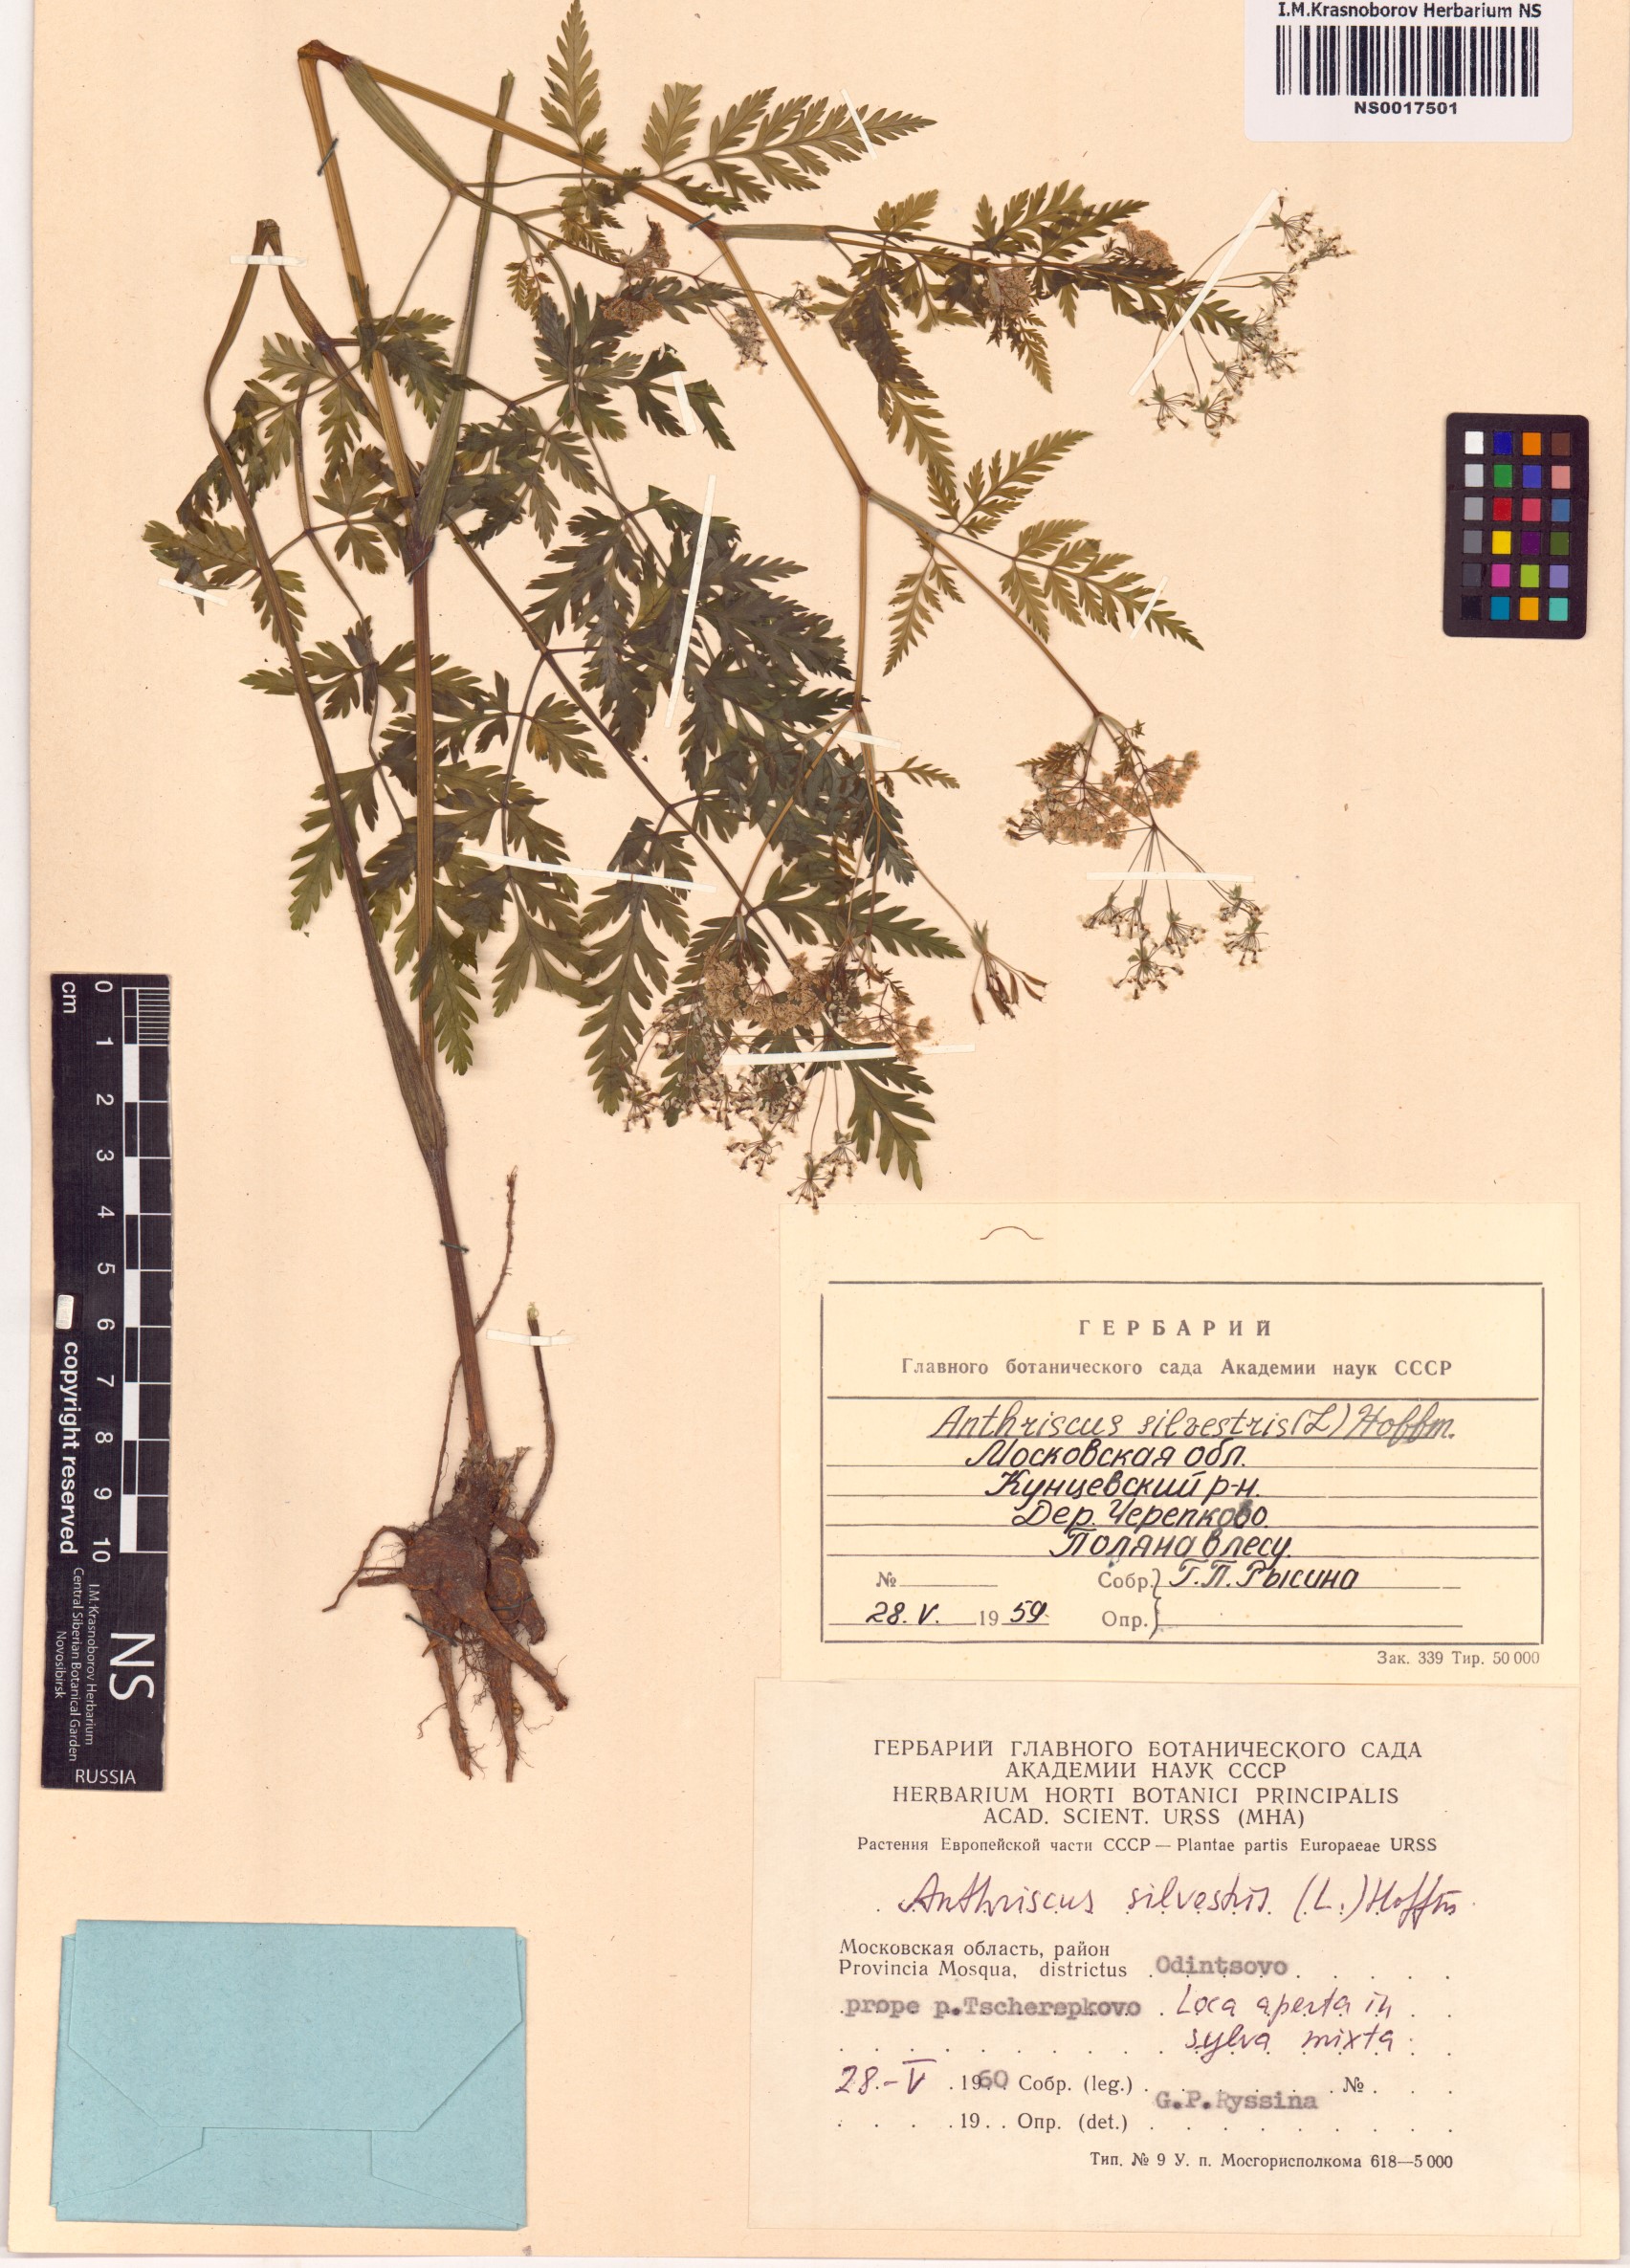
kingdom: Plantae
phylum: Tracheophyta
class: Magnoliopsida
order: Apiales
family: Apiaceae
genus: Anthriscus
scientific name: Anthriscus sylvestris
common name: Cow parsley
